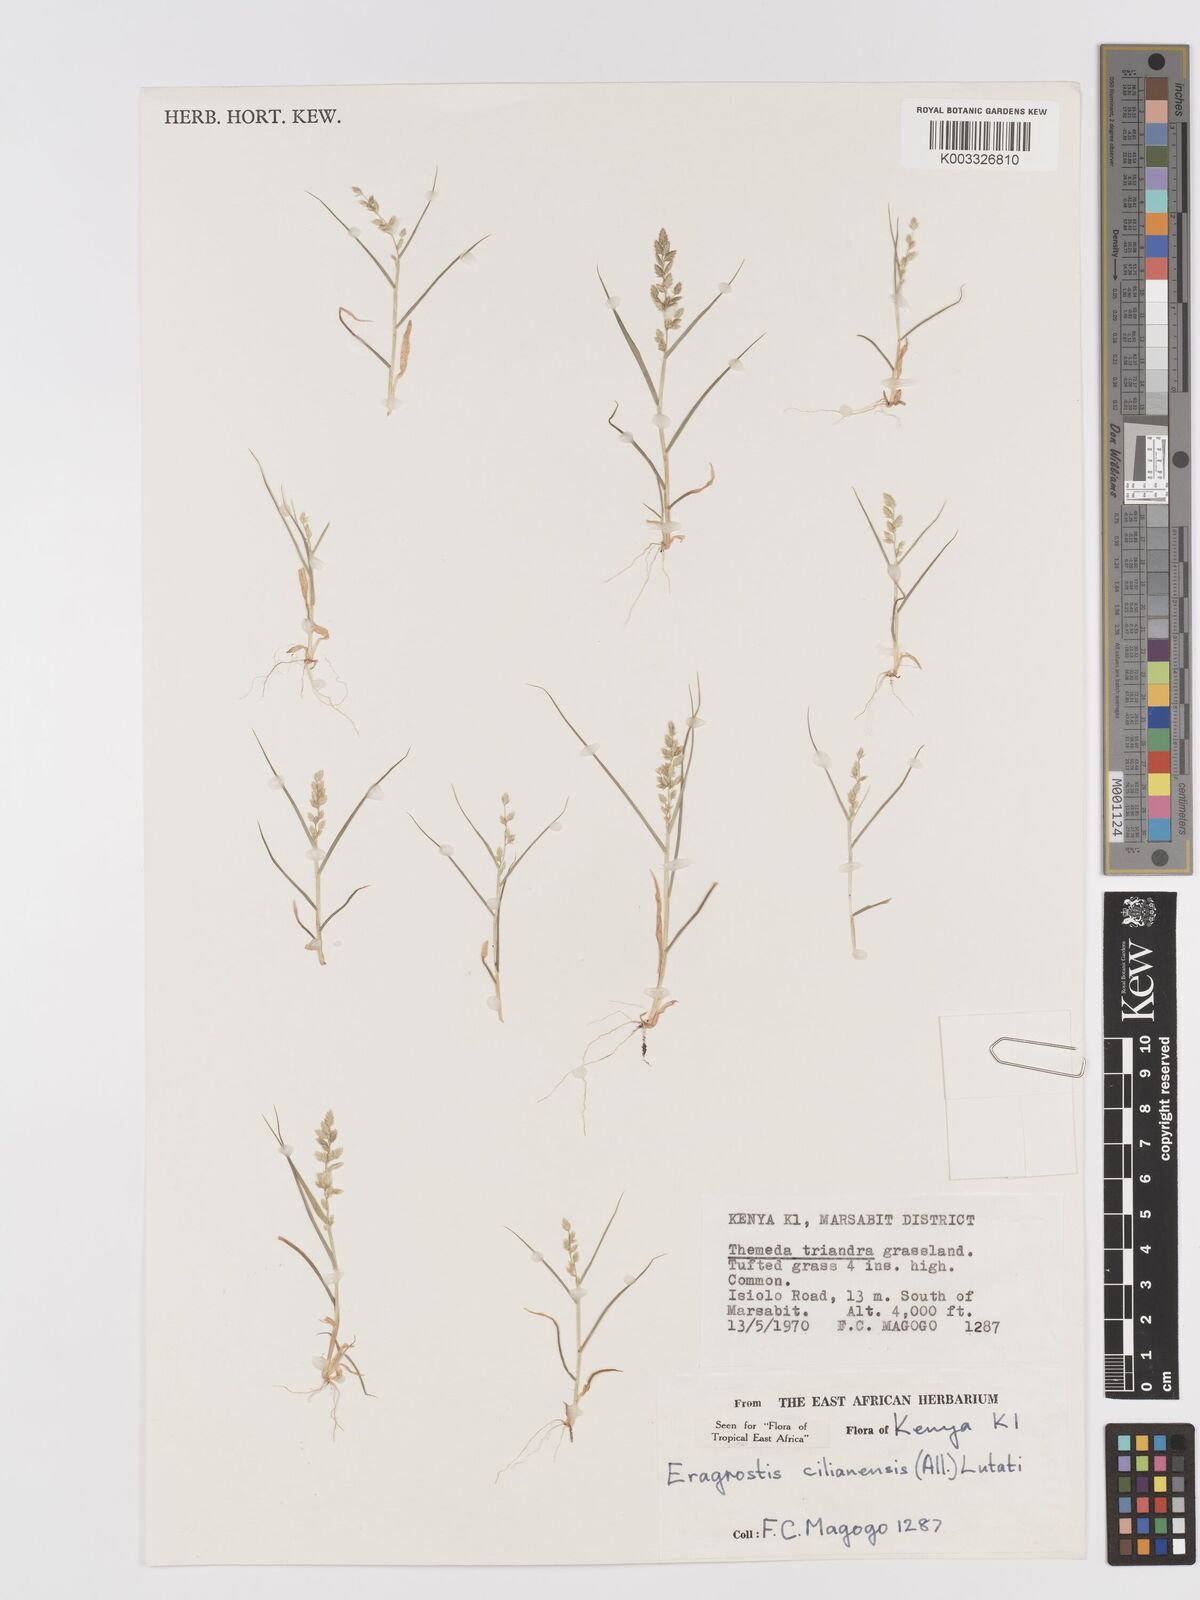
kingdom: Plantae
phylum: Tracheophyta
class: Liliopsida
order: Poales
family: Poaceae
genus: Eragrostis
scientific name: Eragrostis cilianensis
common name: Stinkgrass
